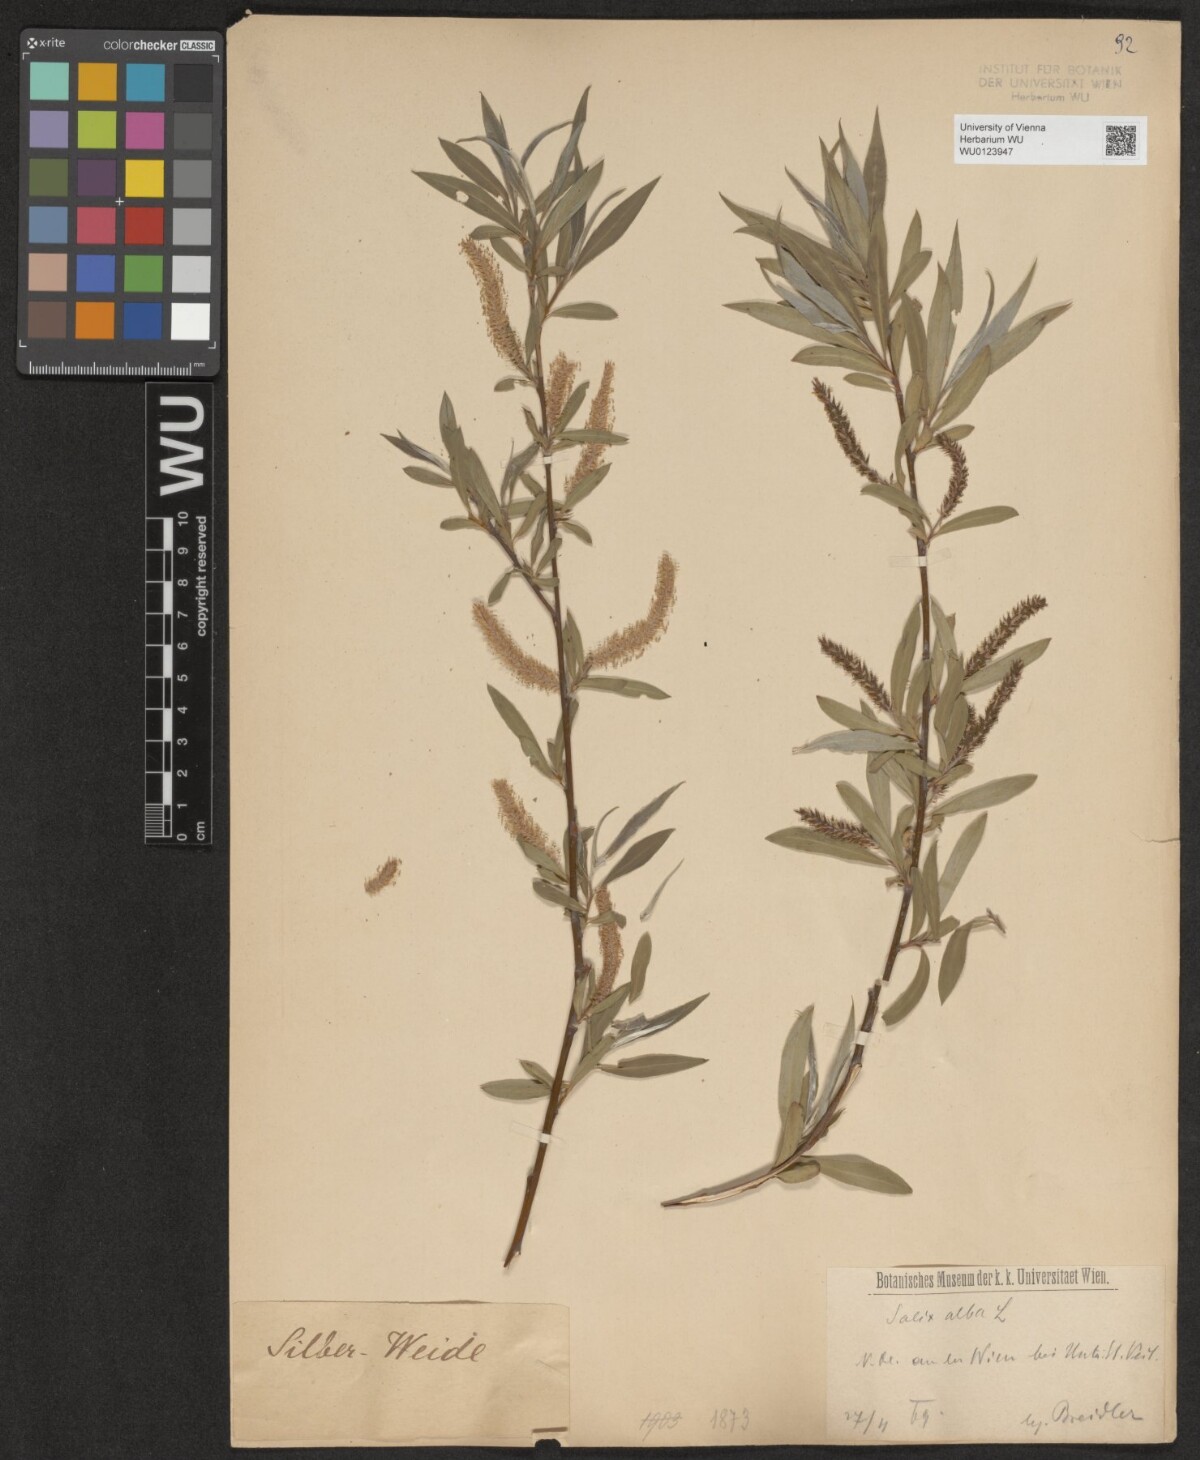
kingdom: Plantae
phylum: Tracheophyta
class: Magnoliopsida
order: Malpighiales
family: Salicaceae
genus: Salix
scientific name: Salix alba
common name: White willow
